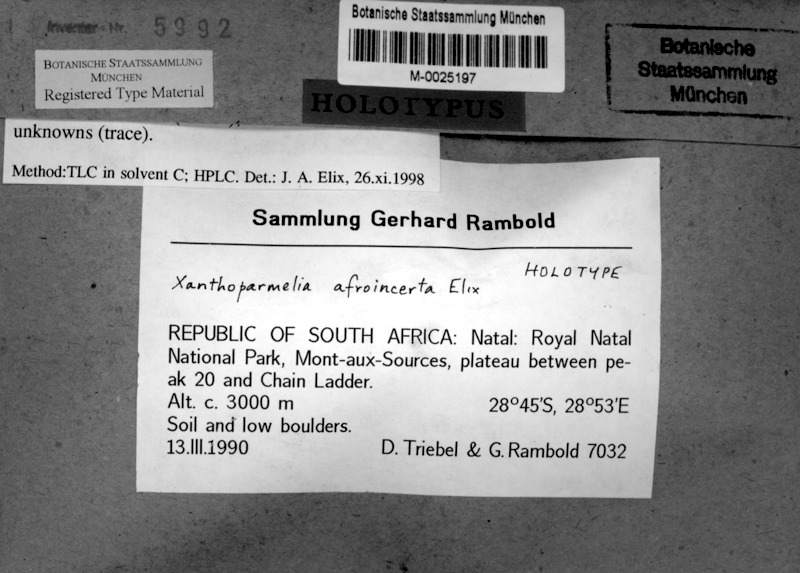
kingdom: Fungi
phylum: Ascomycota
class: Lecanoromycetes
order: Lecanorales
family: Parmeliaceae
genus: Xanthoparmelia
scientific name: Xanthoparmelia
